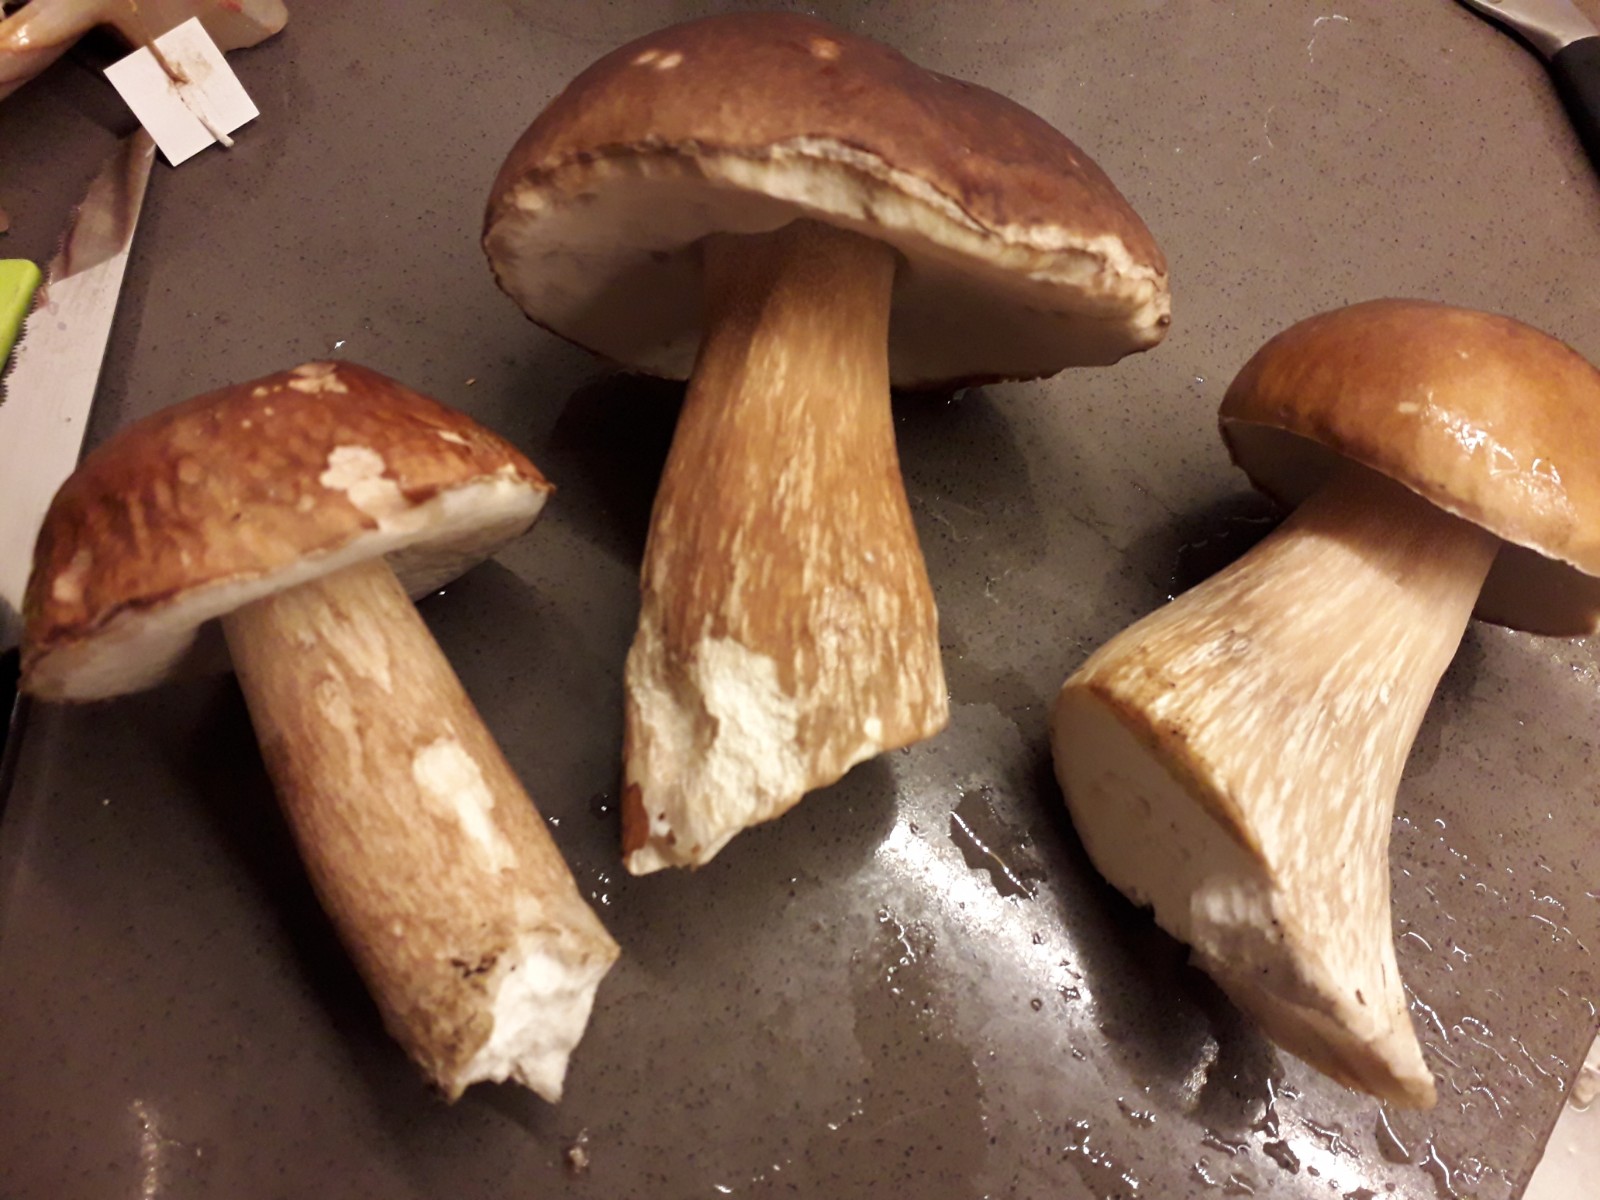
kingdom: Fungi
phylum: Basidiomycota
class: Agaricomycetes
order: Boletales
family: Boletaceae
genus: Boletus
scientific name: Boletus edulis
